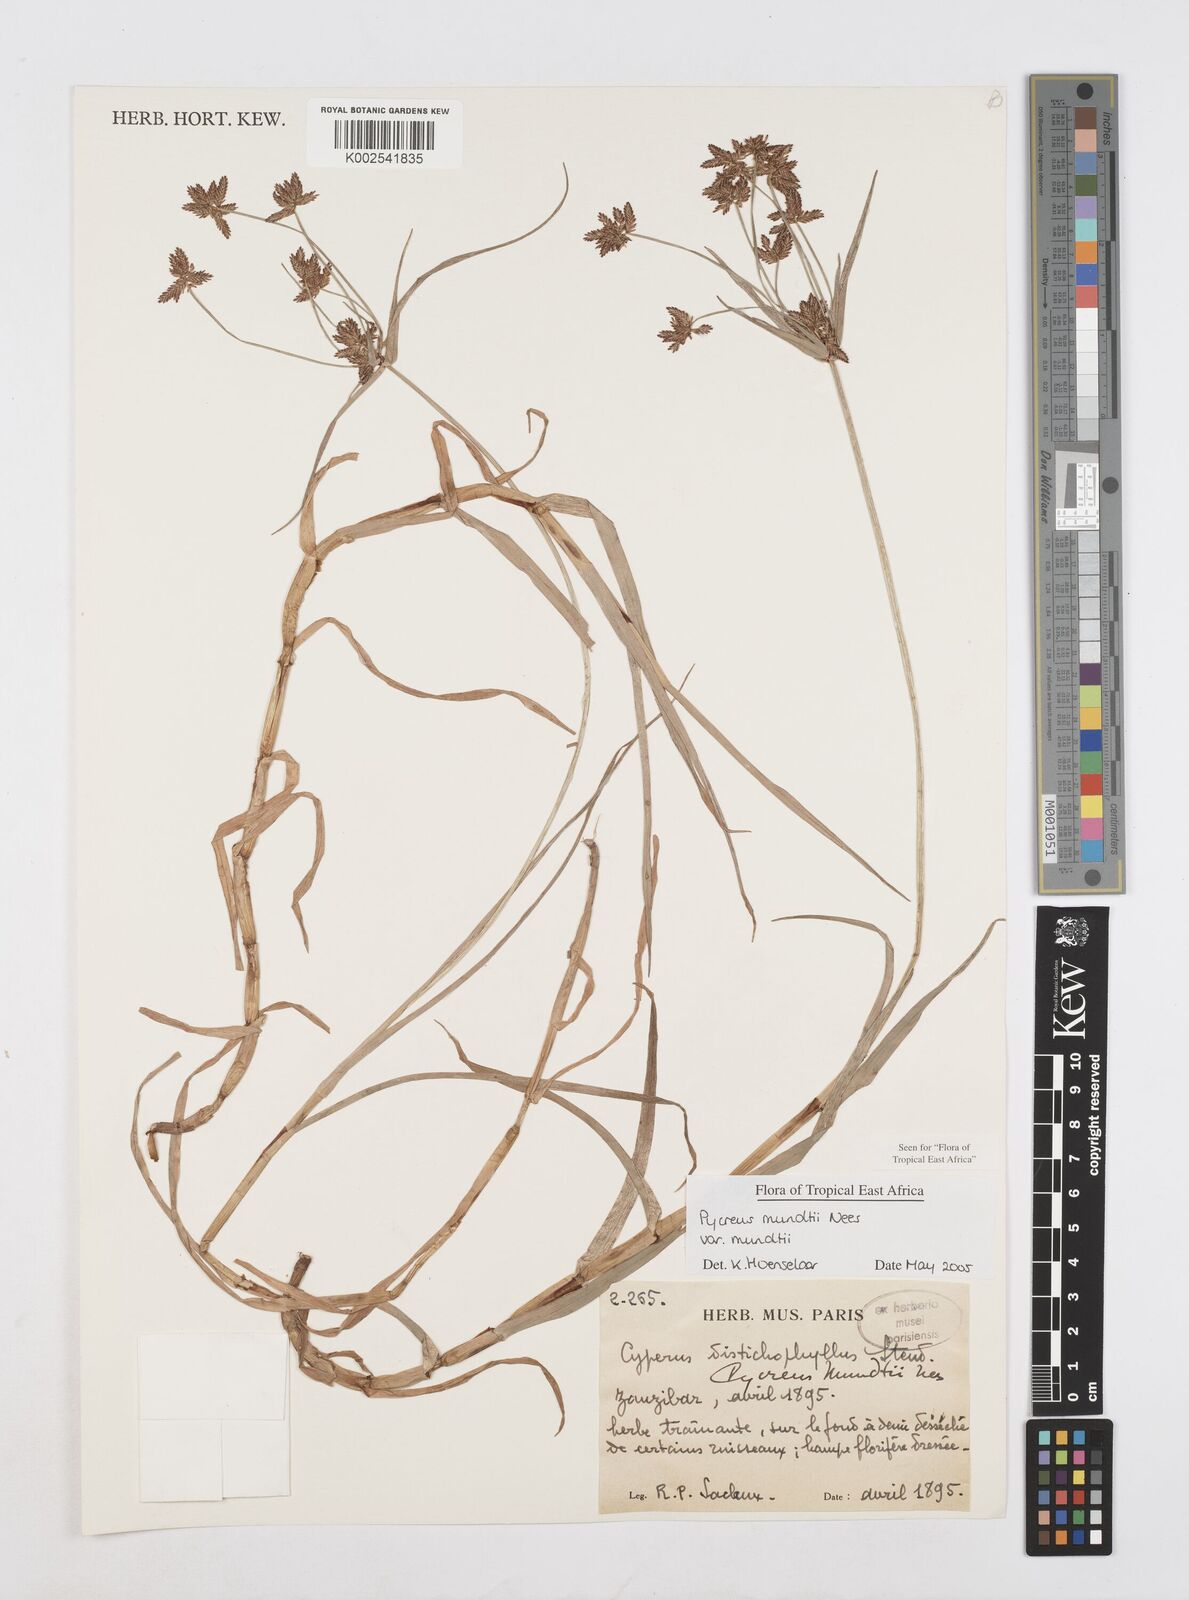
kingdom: Plantae
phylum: Tracheophyta
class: Liliopsida
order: Poales
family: Cyperaceae
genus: Cyperus
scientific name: Cyperus mundii
